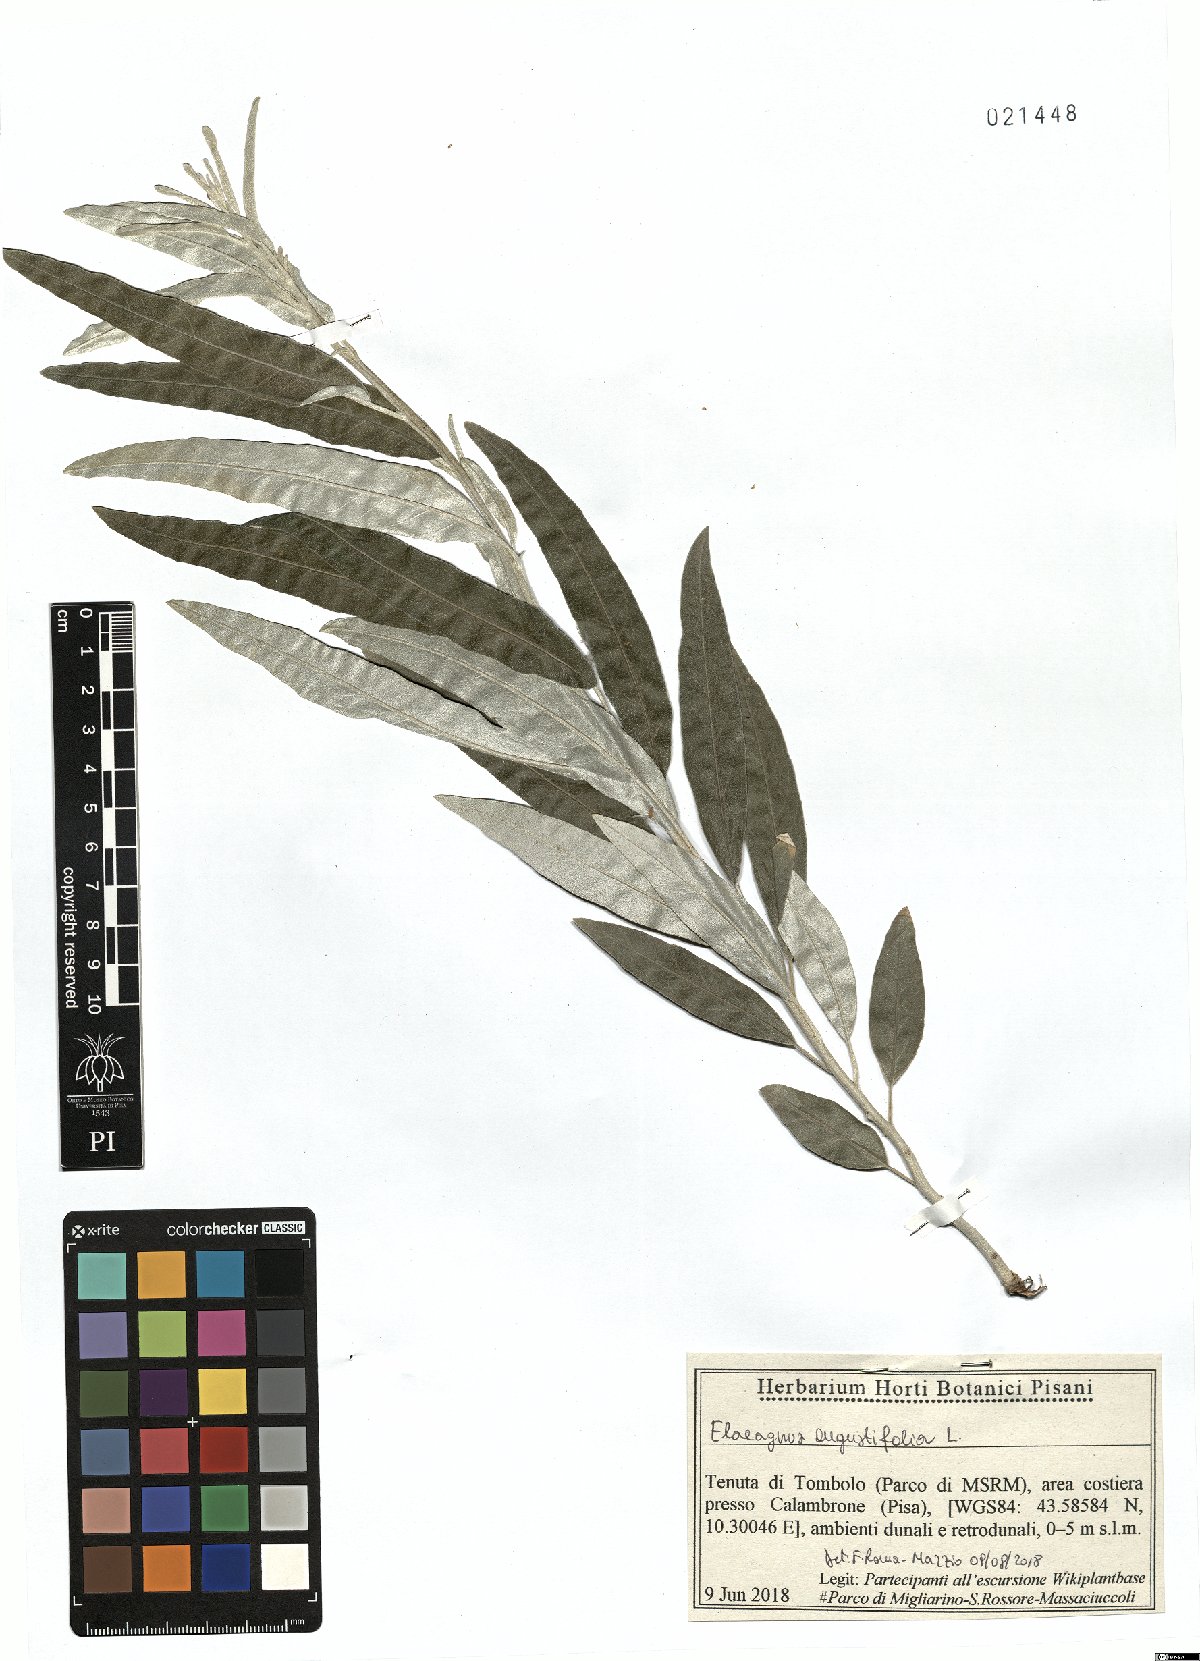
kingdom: Plantae
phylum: Tracheophyta
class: Magnoliopsida
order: Rosales
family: Elaeagnaceae
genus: Elaeagnus
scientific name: Elaeagnus angustifolia
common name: Russian olive
